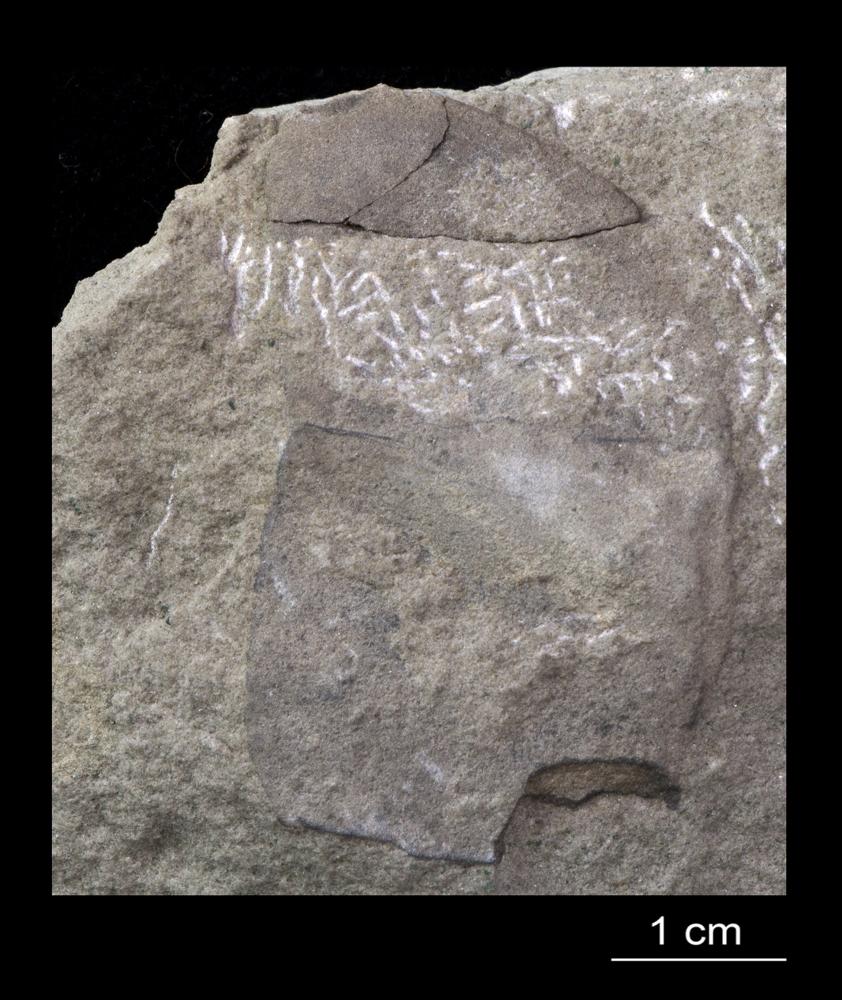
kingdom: Animalia
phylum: Arthropoda
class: Trilobita
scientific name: Trilobita
